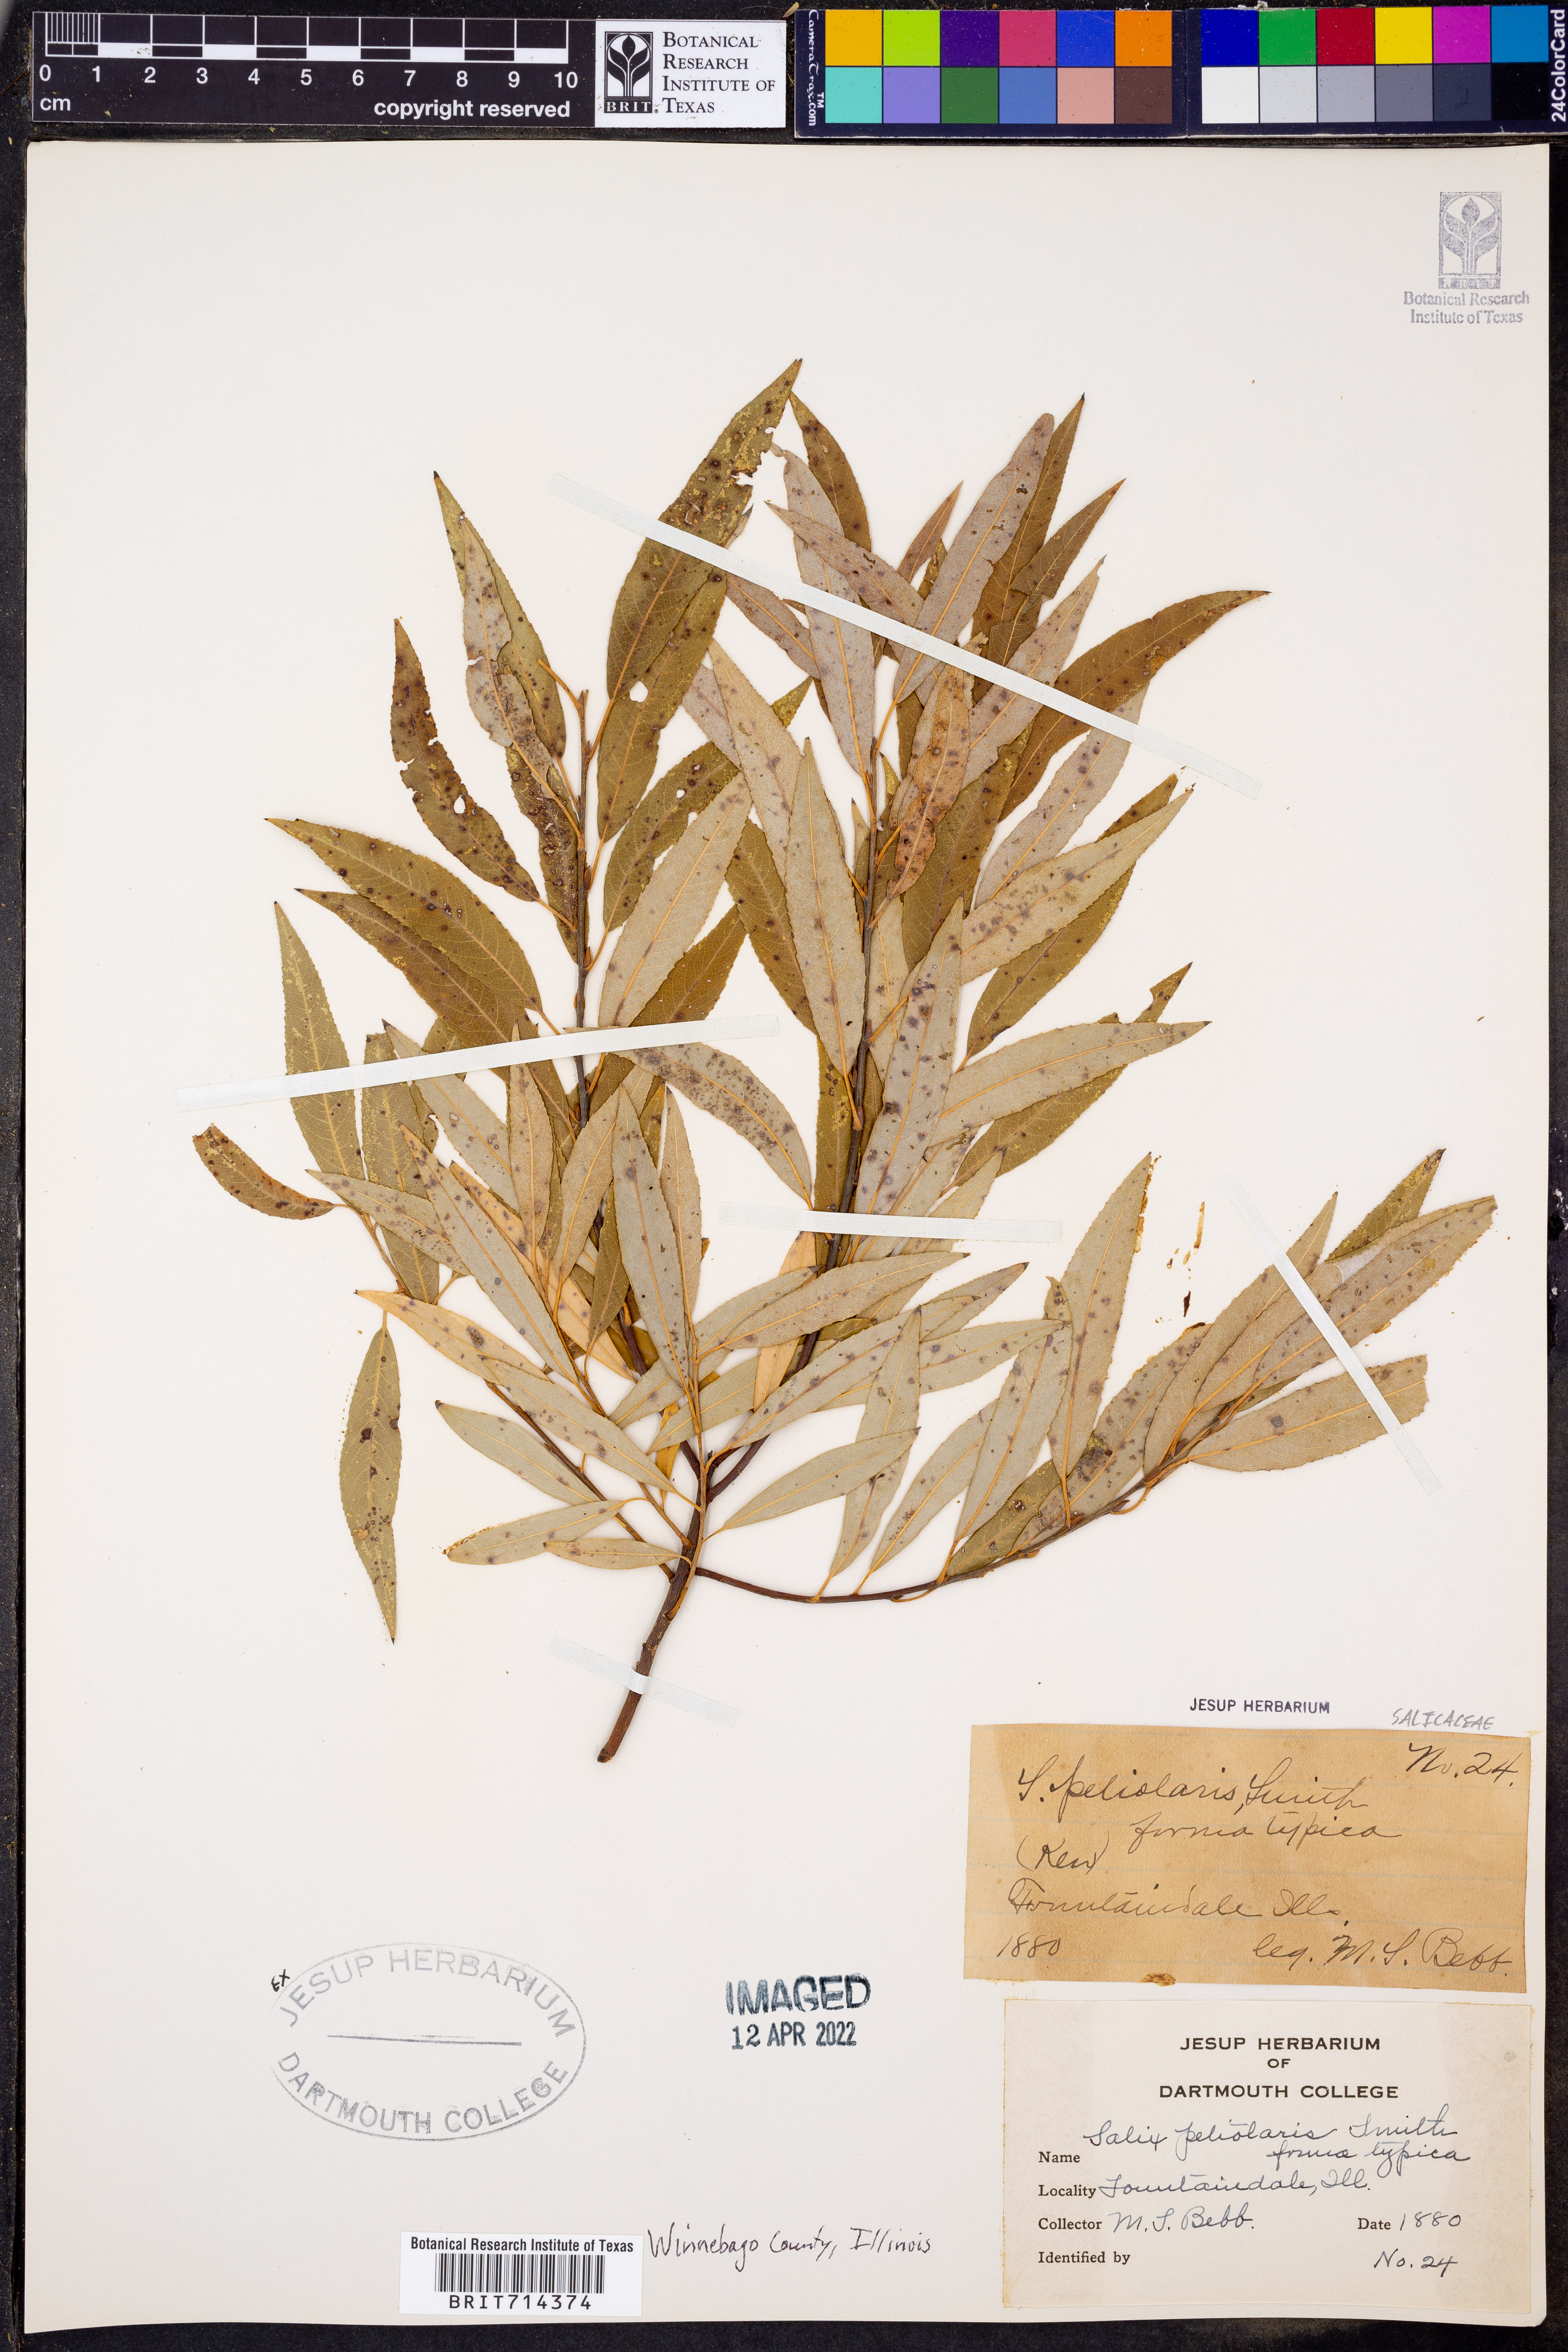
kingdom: Plantae
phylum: Tracheophyta
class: Magnoliopsida
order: Malpighiales
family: Salicaceae
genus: Salix
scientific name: Salix petiolaris
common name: Slender willow
